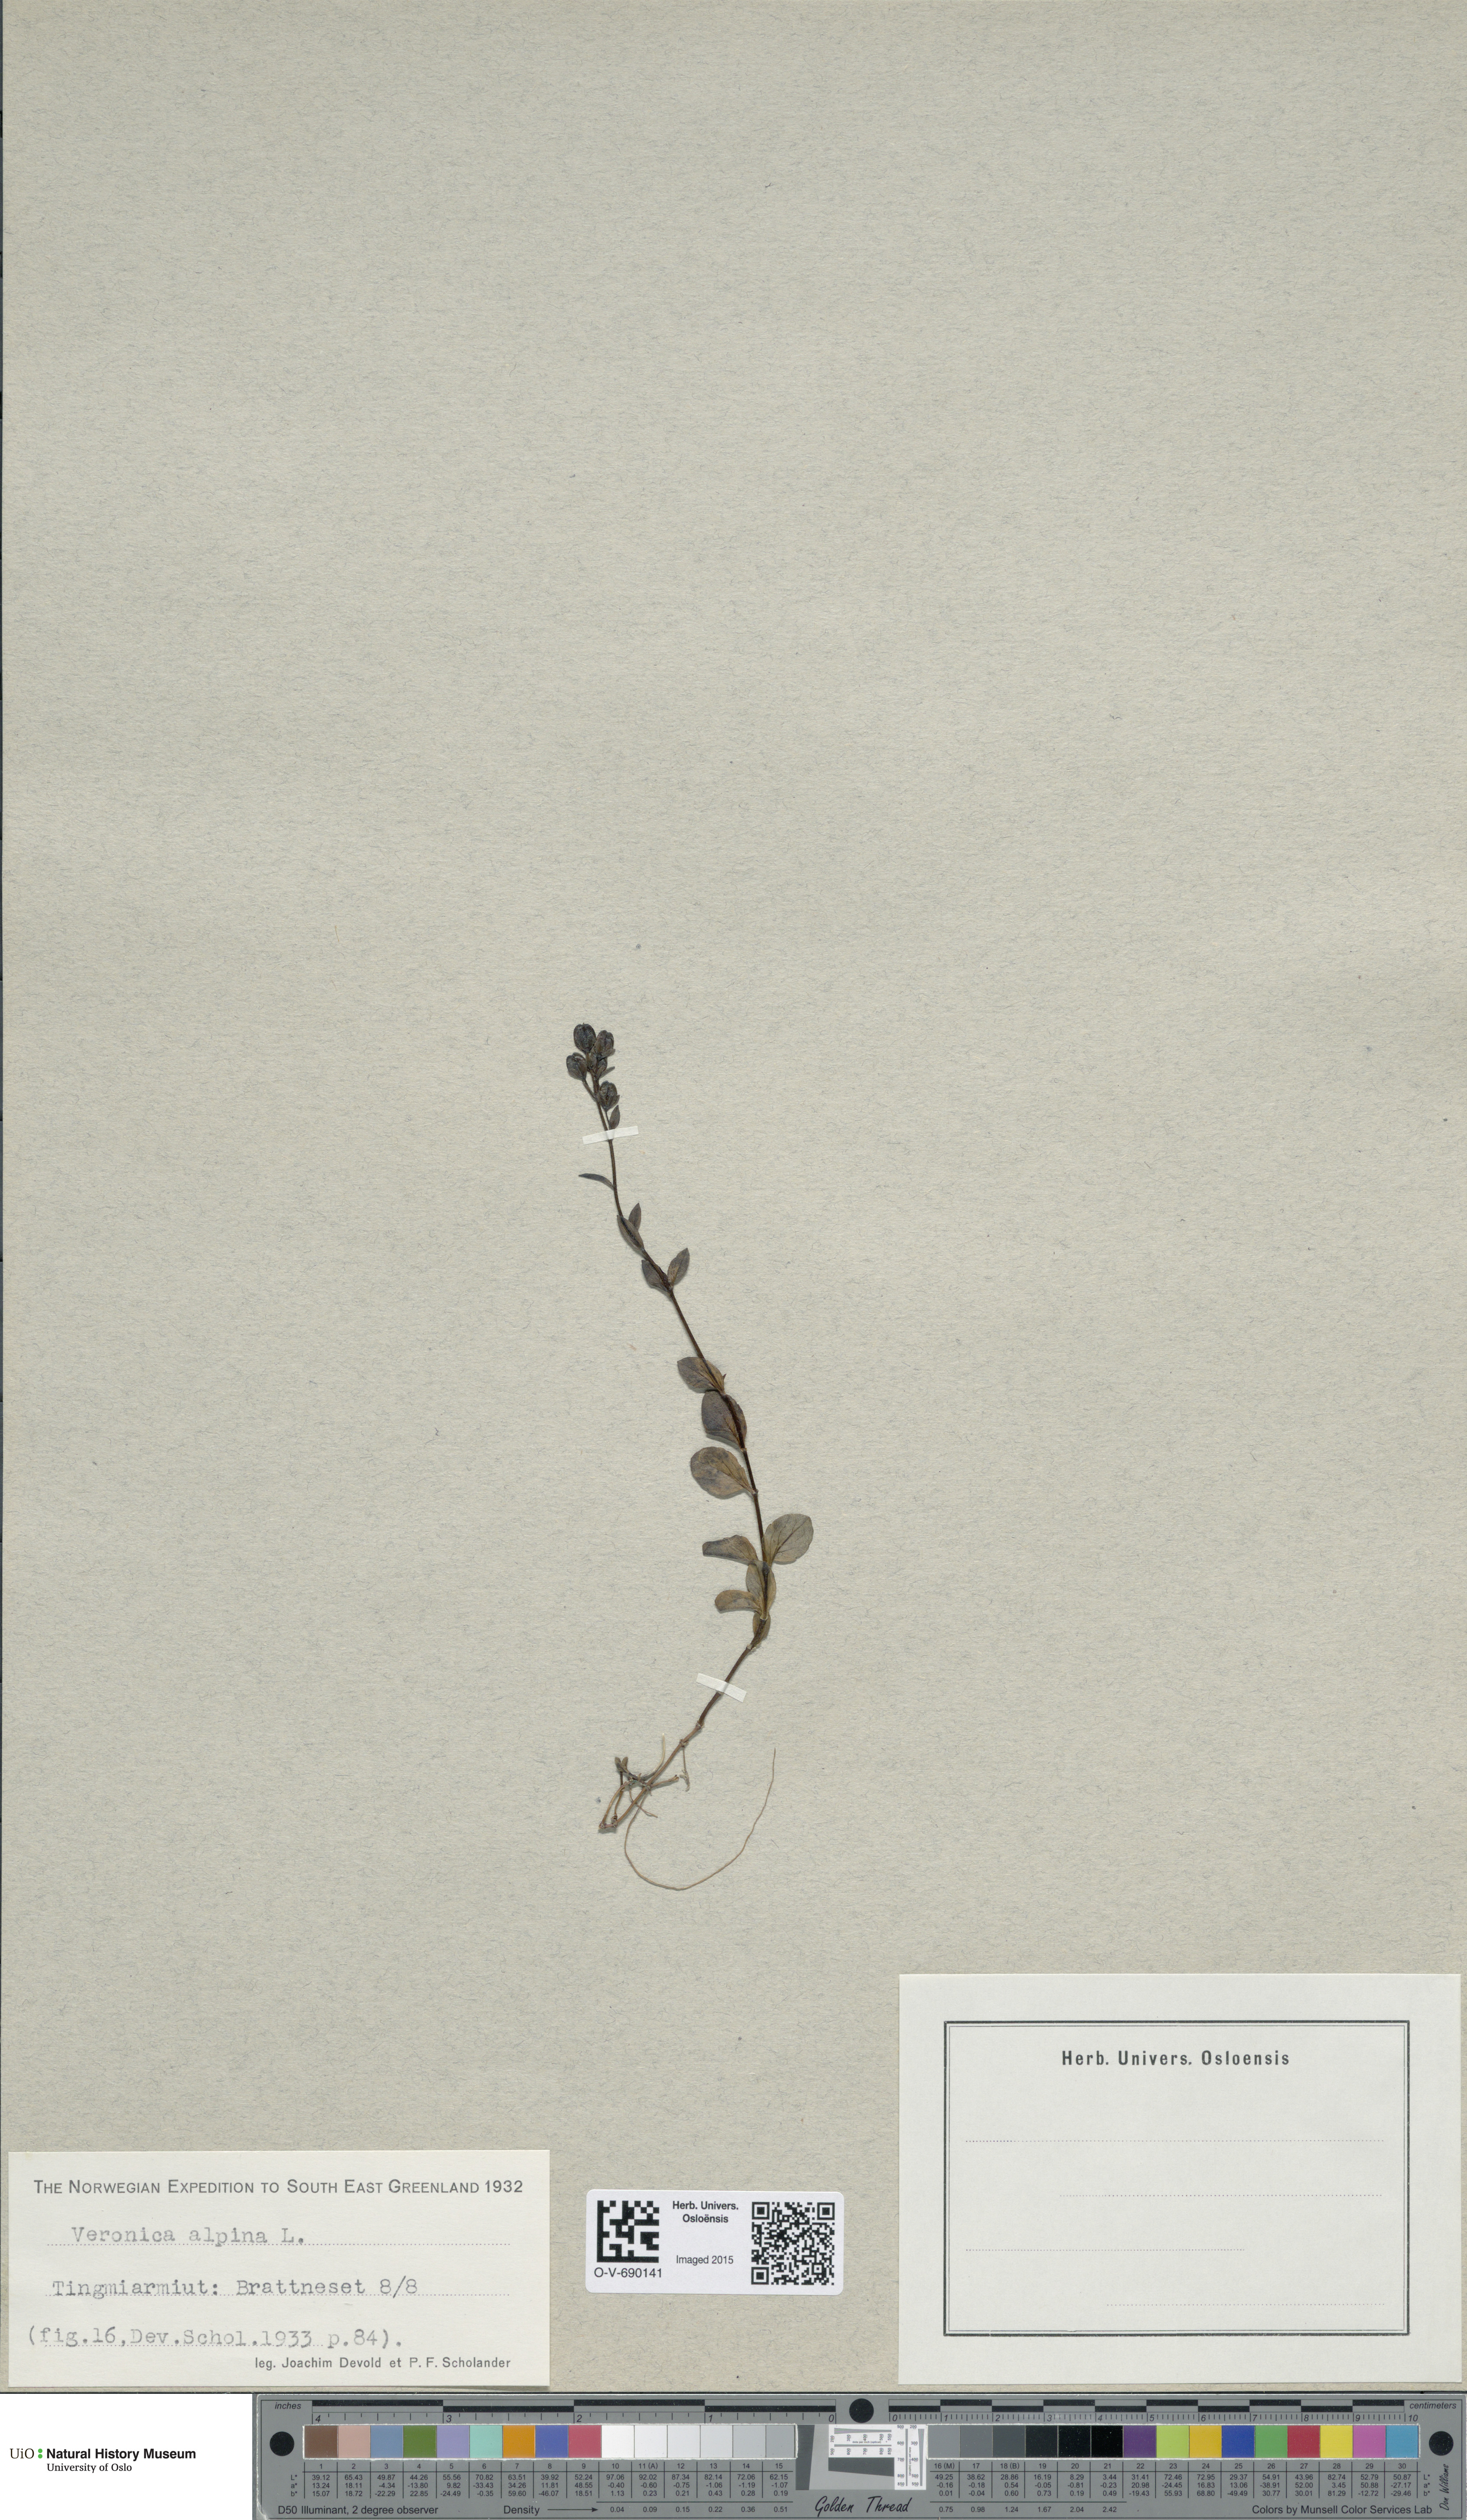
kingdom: Plantae
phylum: Tracheophyta
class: Magnoliopsida
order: Lamiales
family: Plantaginaceae
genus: Veronica
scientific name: Veronica alpina
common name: Alpine speedwell
